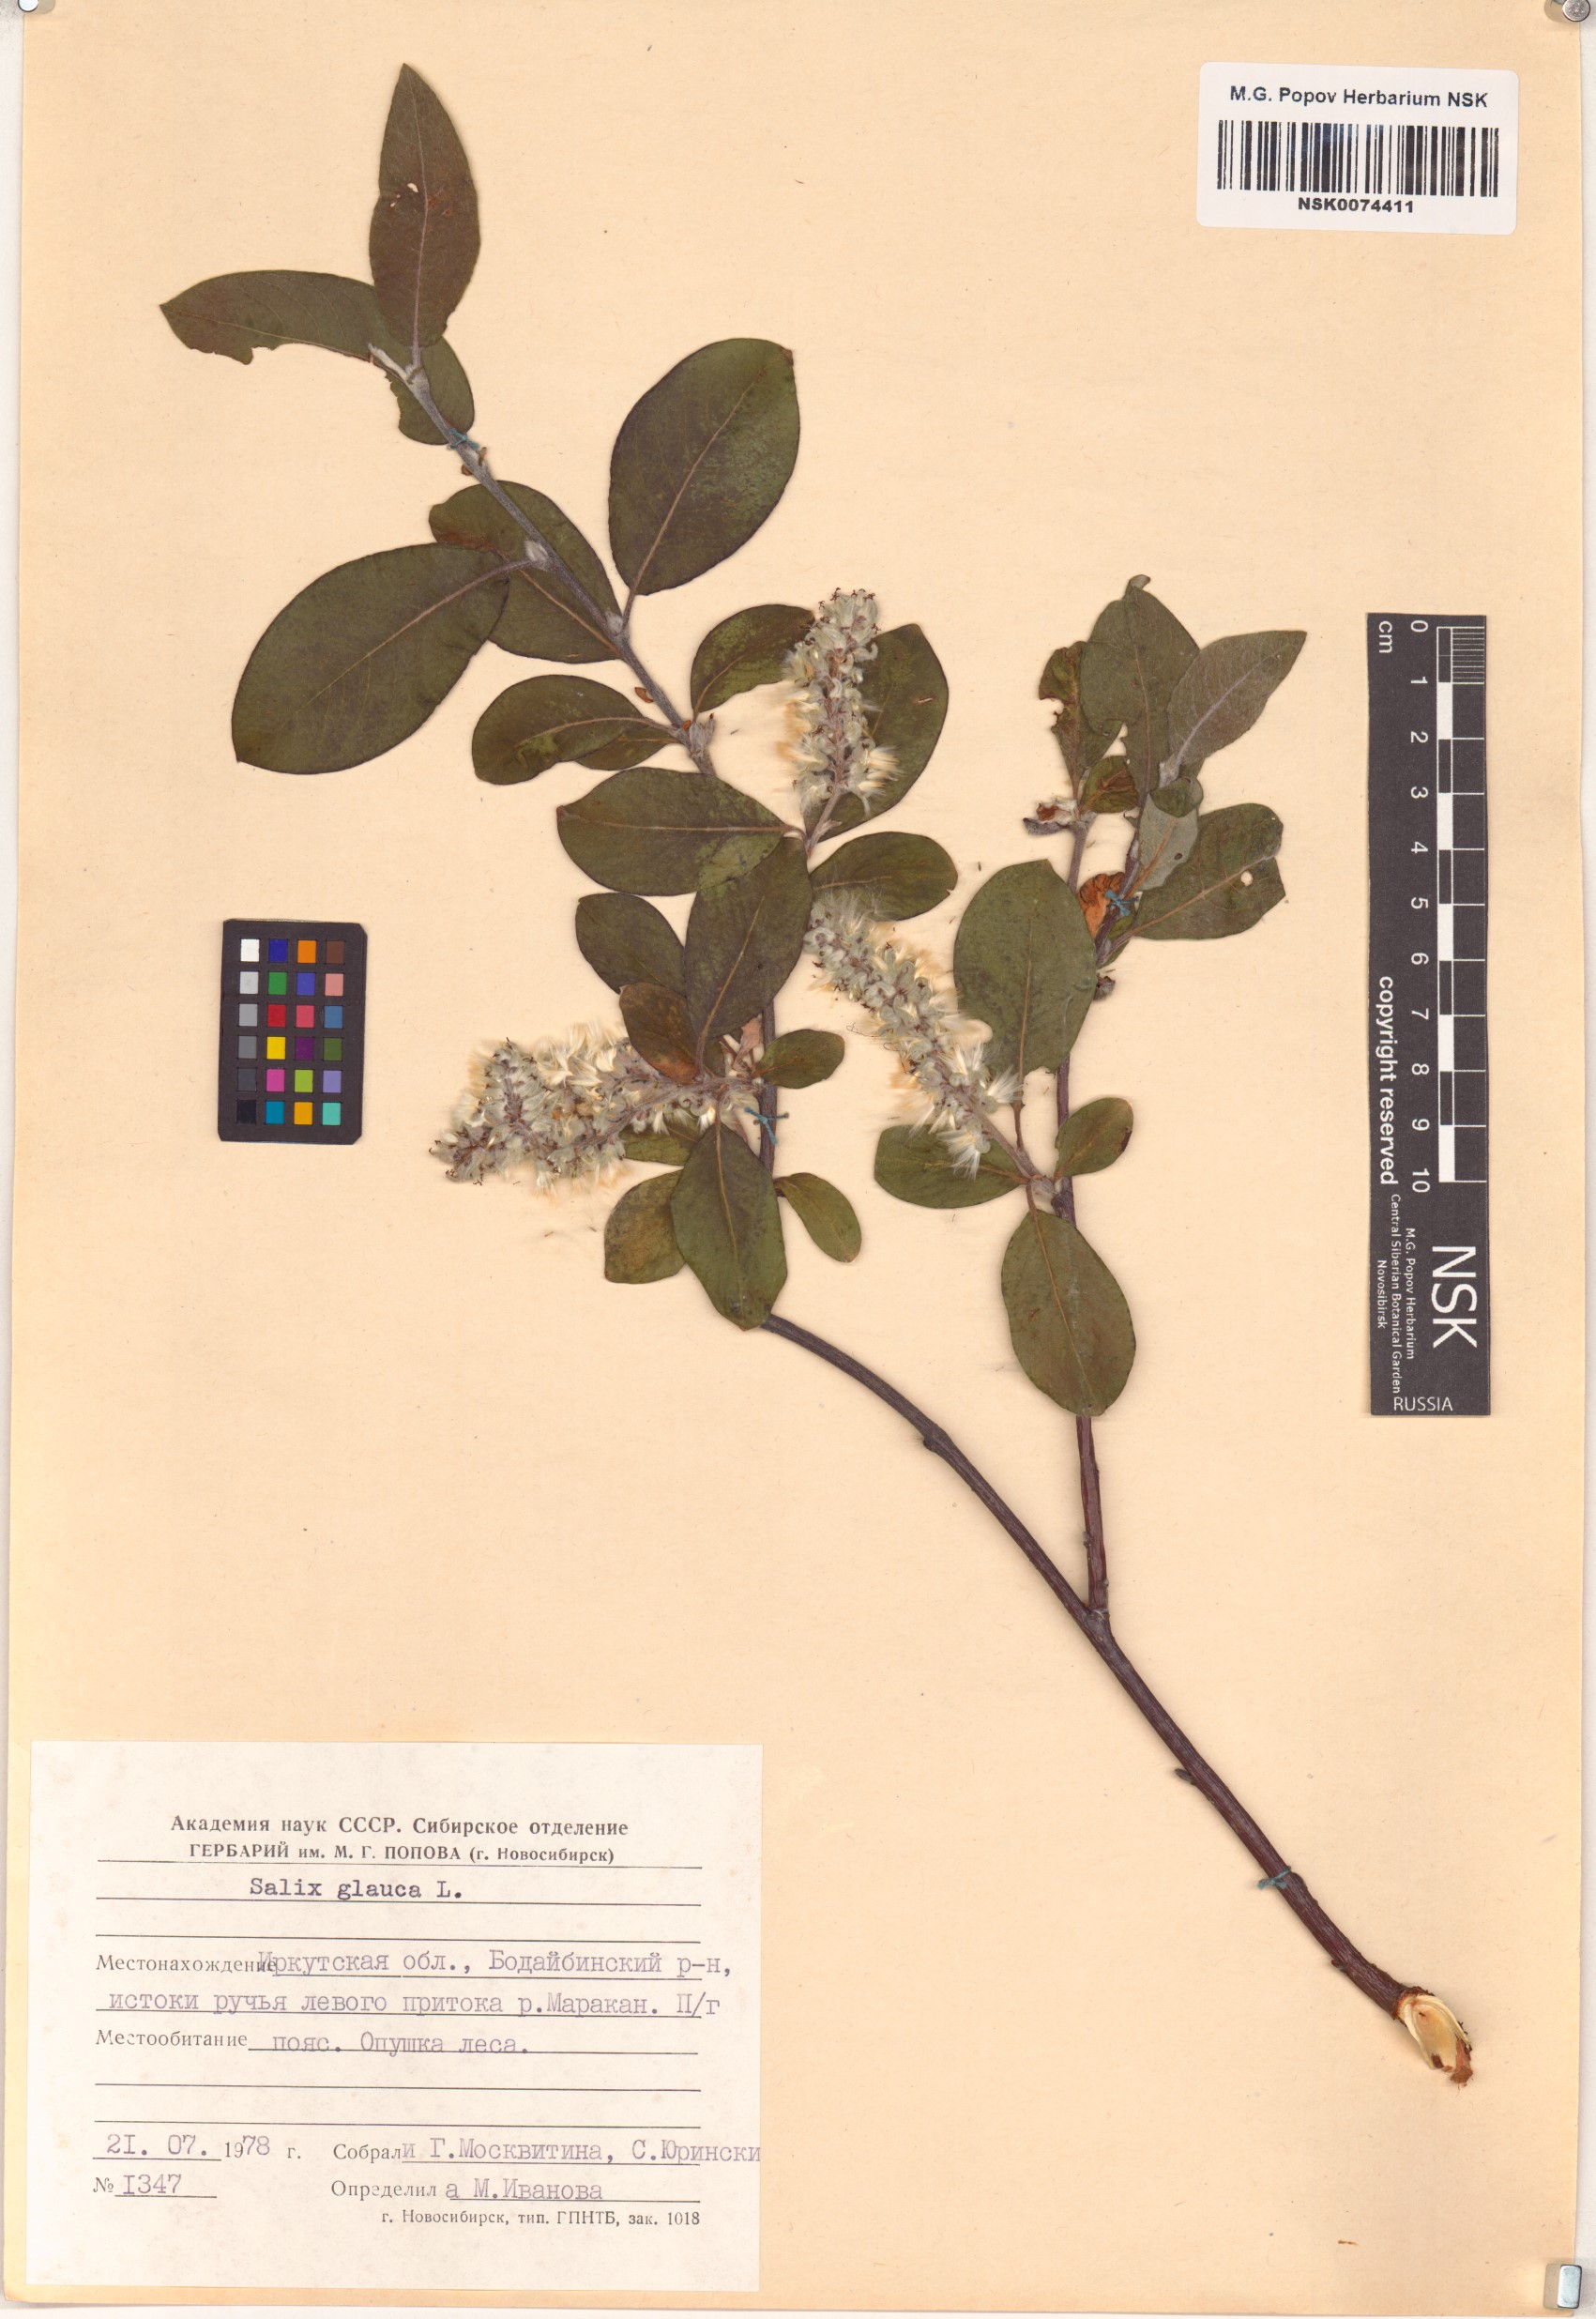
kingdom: Plantae
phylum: Tracheophyta
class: Magnoliopsida
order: Malpighiales
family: Salicaceae
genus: Salix
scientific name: Salix glauca
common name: Glaucous willow
